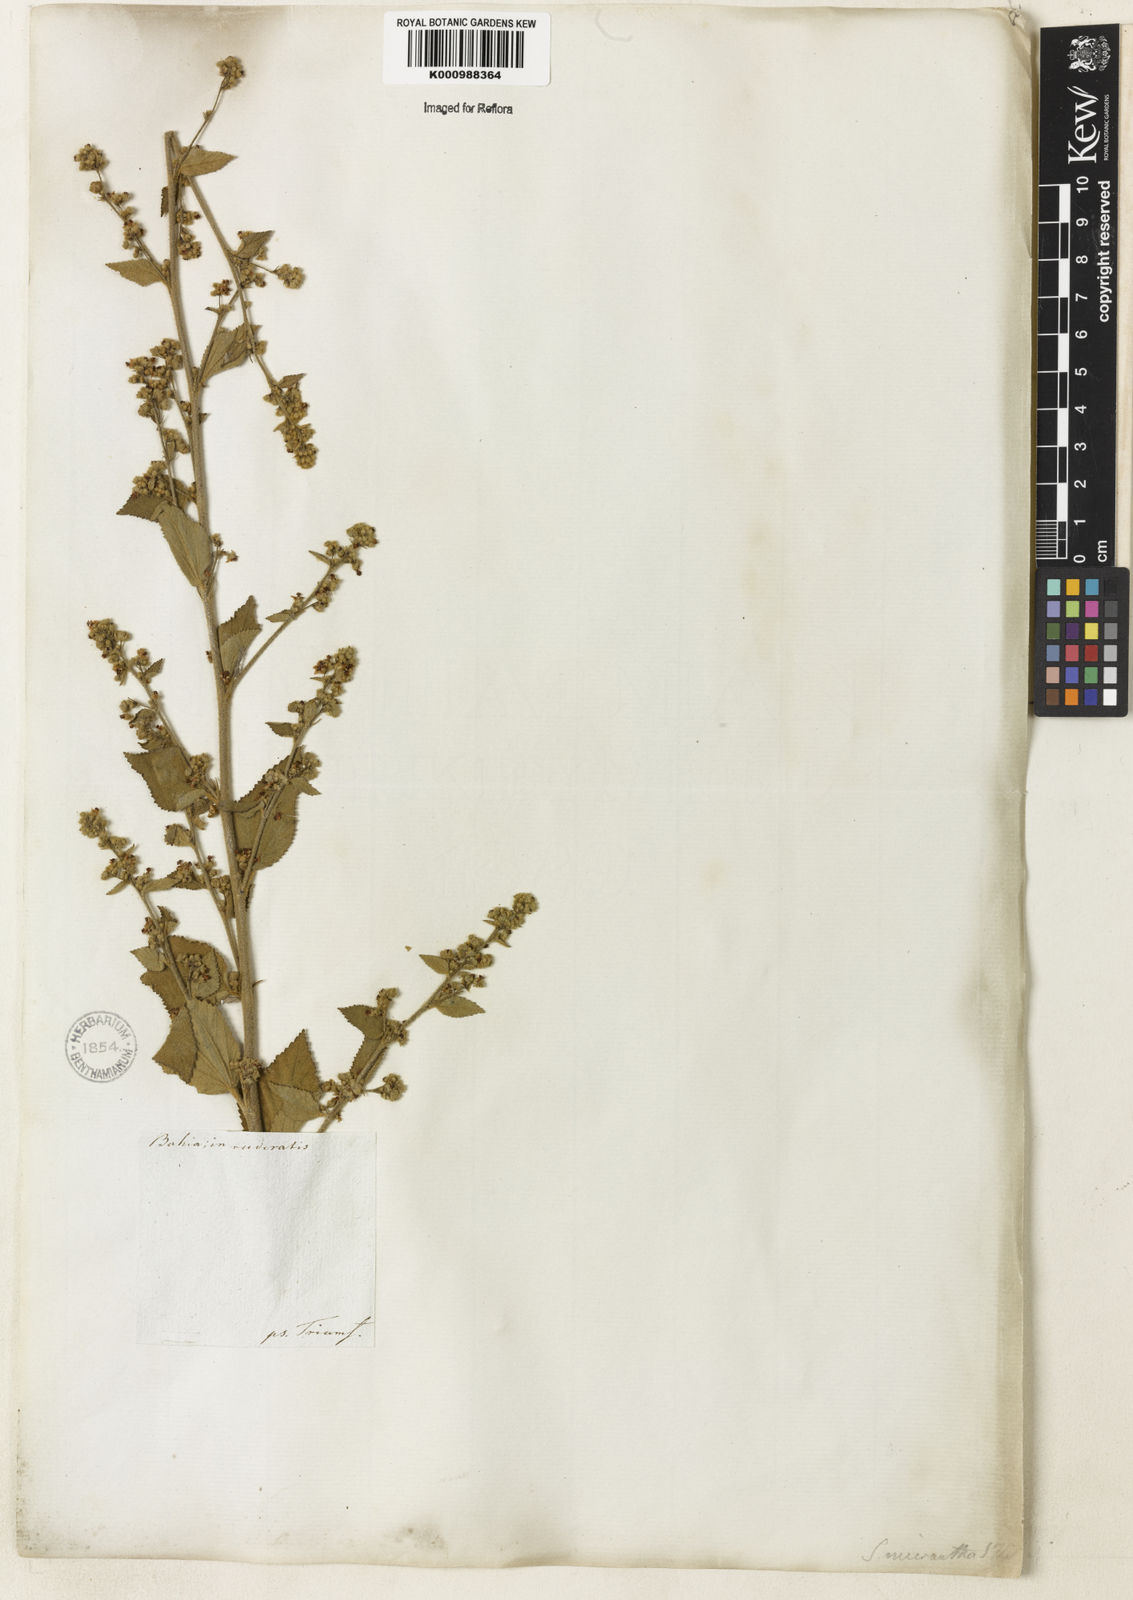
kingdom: Plantae
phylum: Tracheophyta
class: Magnoliopsida
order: Malvales
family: Malvaceae
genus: Sidastrum
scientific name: Sidastrum micranthum
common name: Dainty sandmallow
